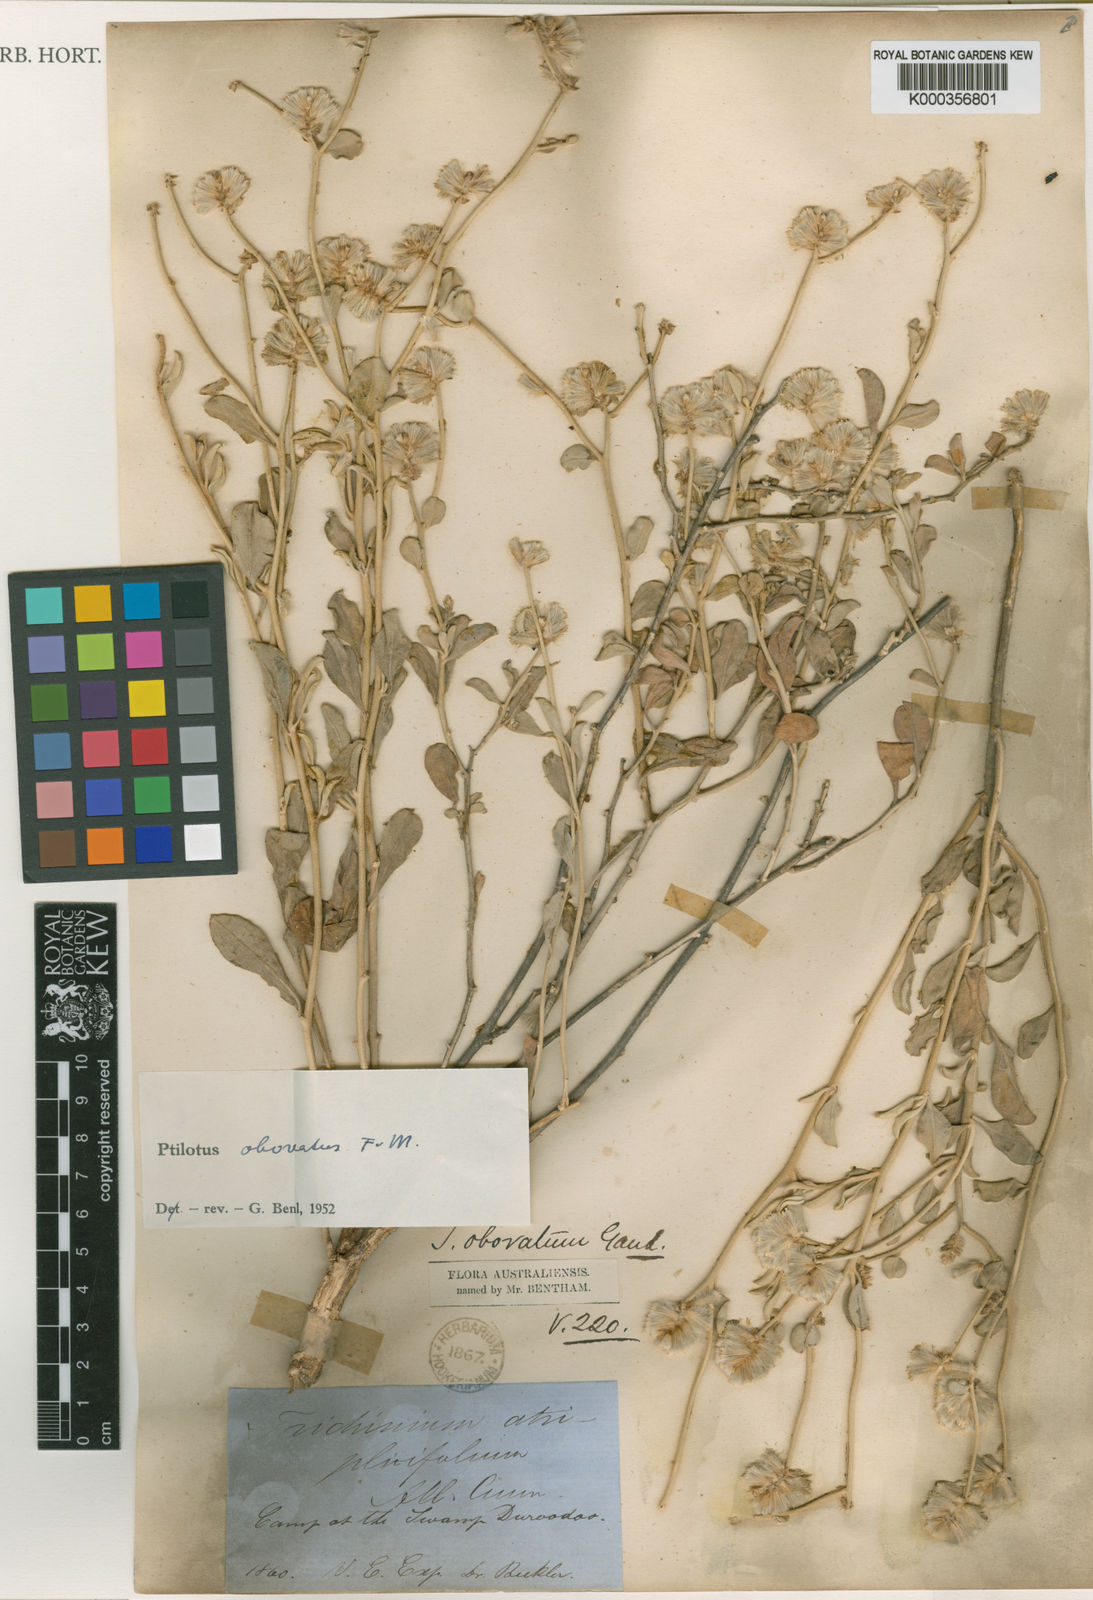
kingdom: Plantae
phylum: Tracheophyta
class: Magnoliopsida
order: Caryophyllales
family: Amaranthaceae
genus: Ptilotus
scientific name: Ptilotus obovatus
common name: Cottonbush
